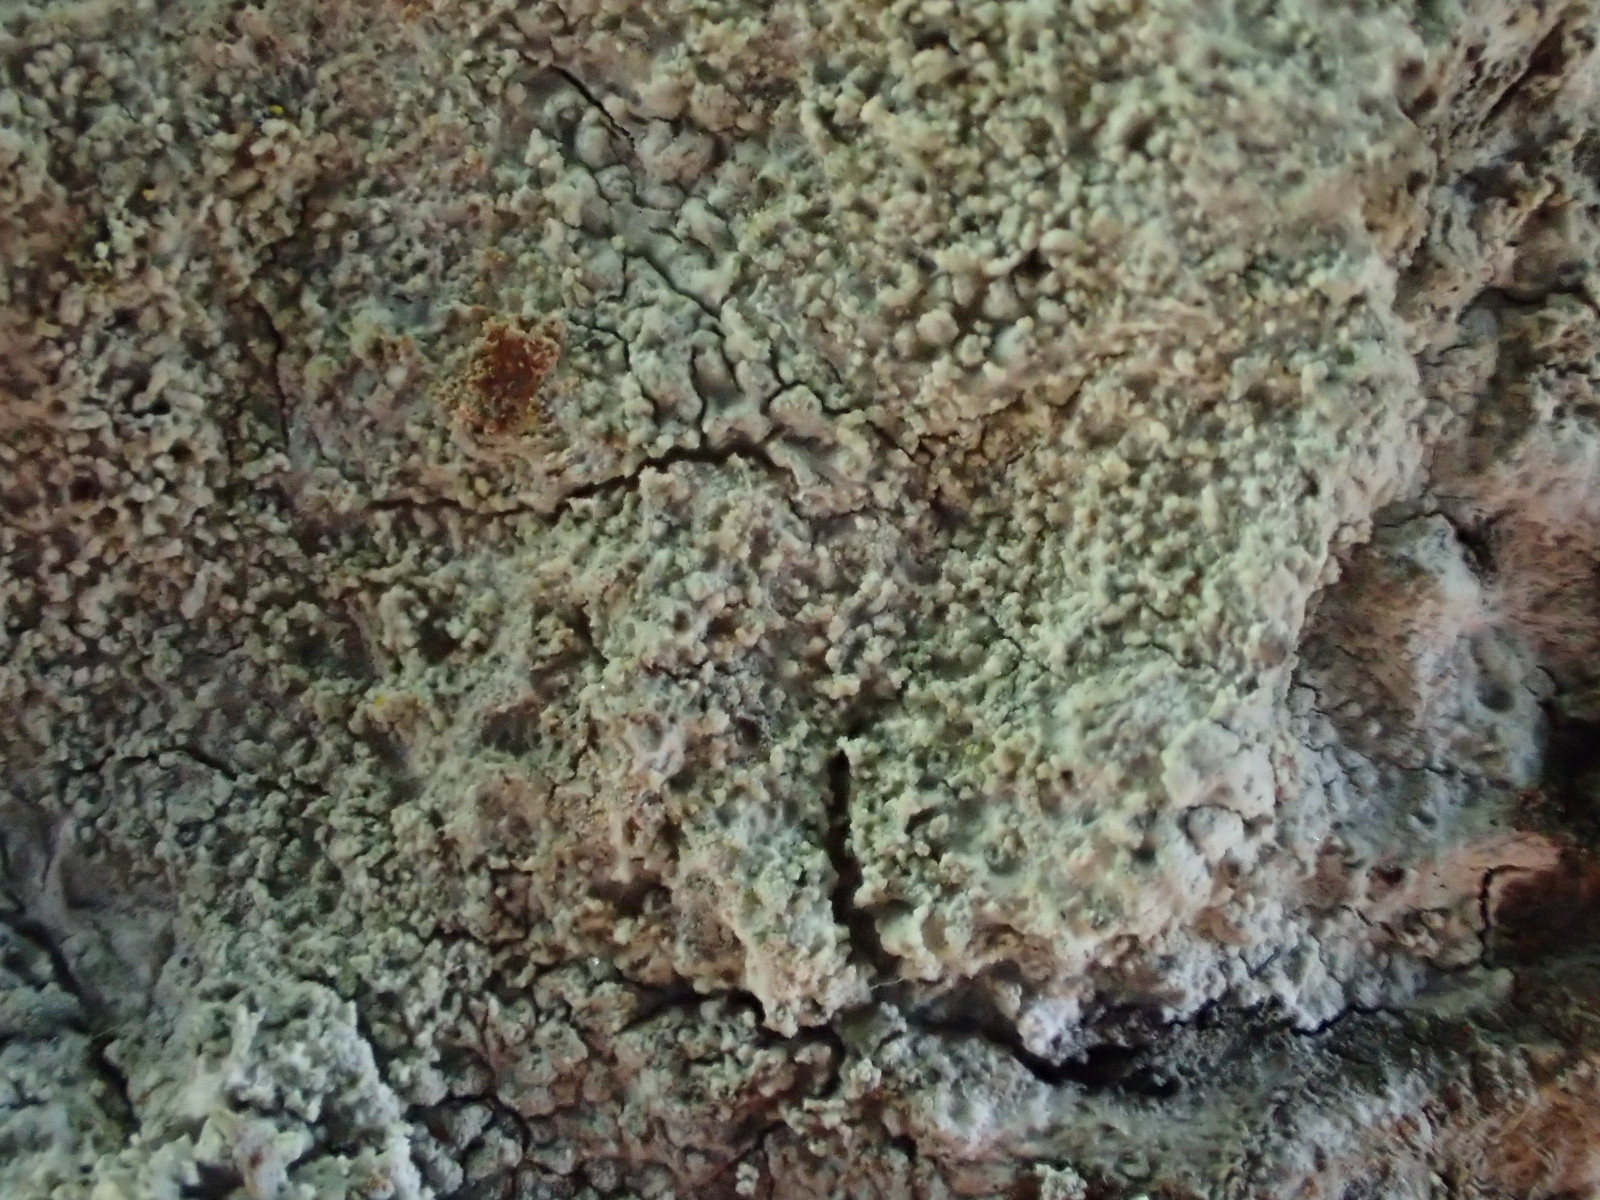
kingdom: Fungi
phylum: Ascomycota
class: Lecanoromycetes
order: Ostropales
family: Phlyctidaceae
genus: Phlyctis
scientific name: Phlyctis argena
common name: almindelig sølvlav
